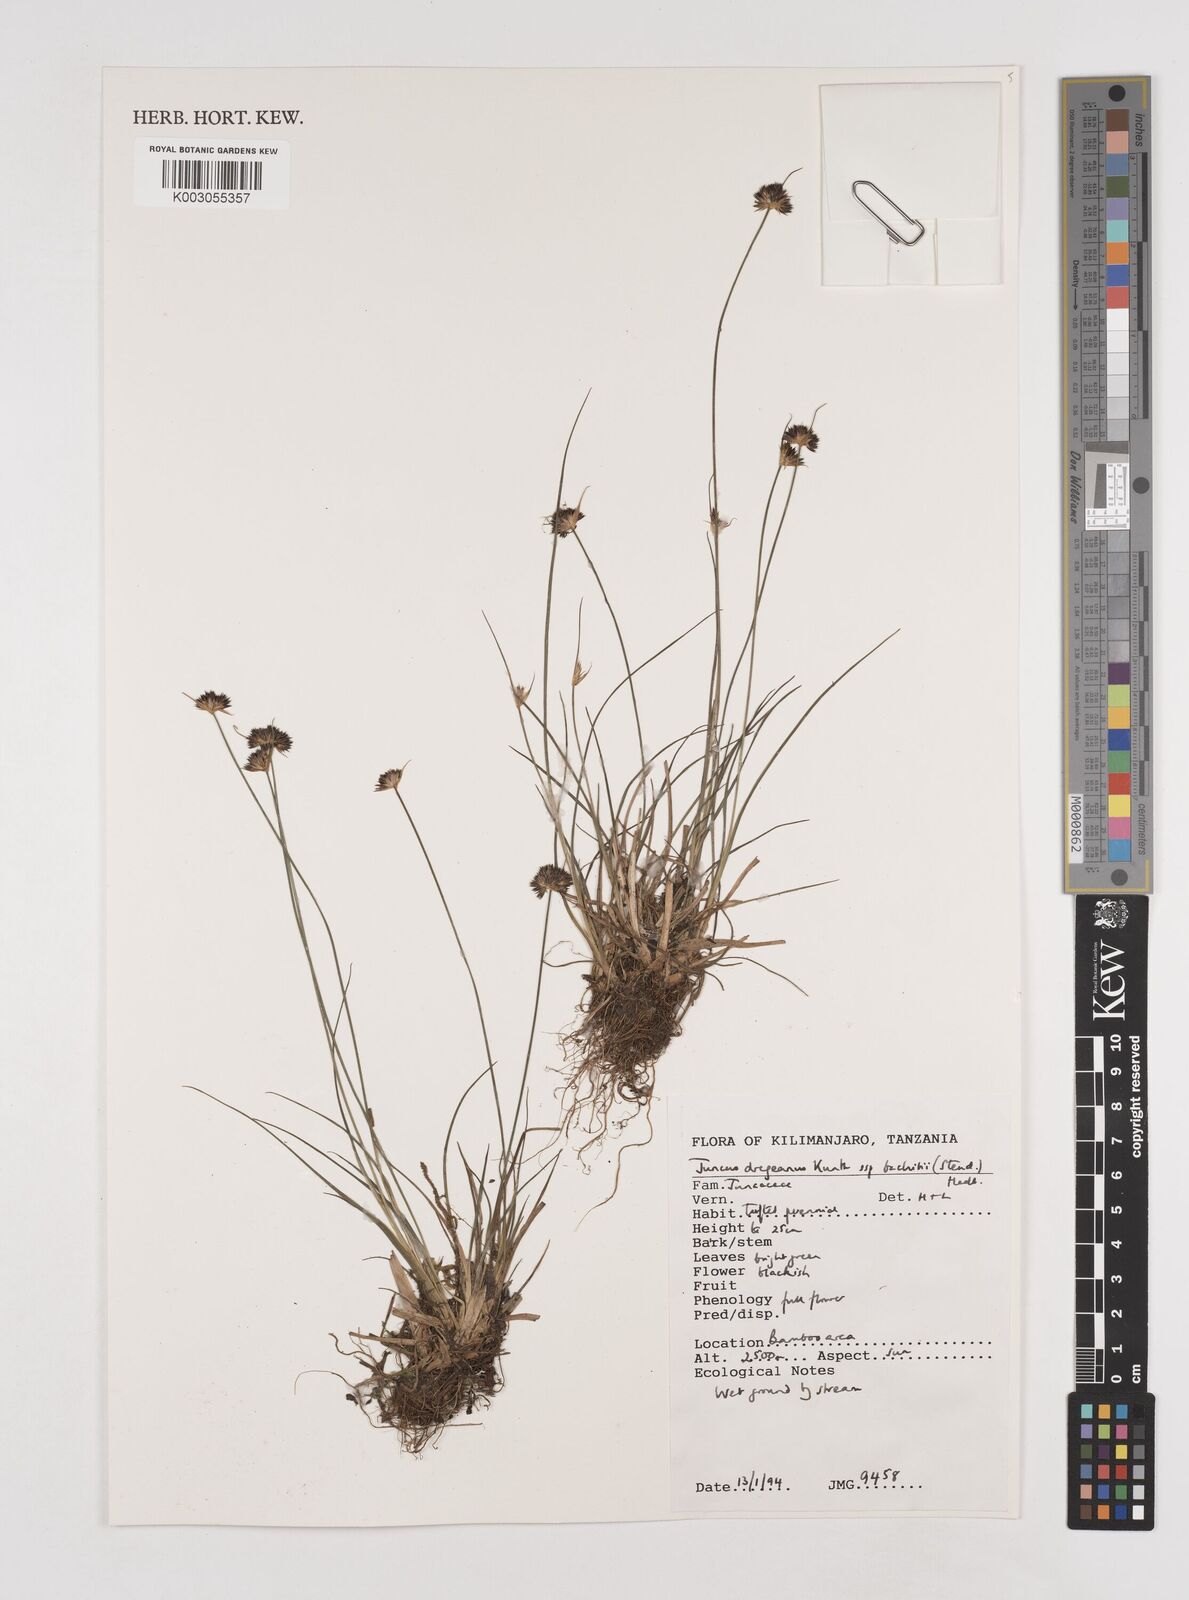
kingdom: Plantae
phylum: Tracheophyta
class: Liliopsida
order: Poales
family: Juncaceae
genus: Juncus
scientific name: Juncus dregeanus
